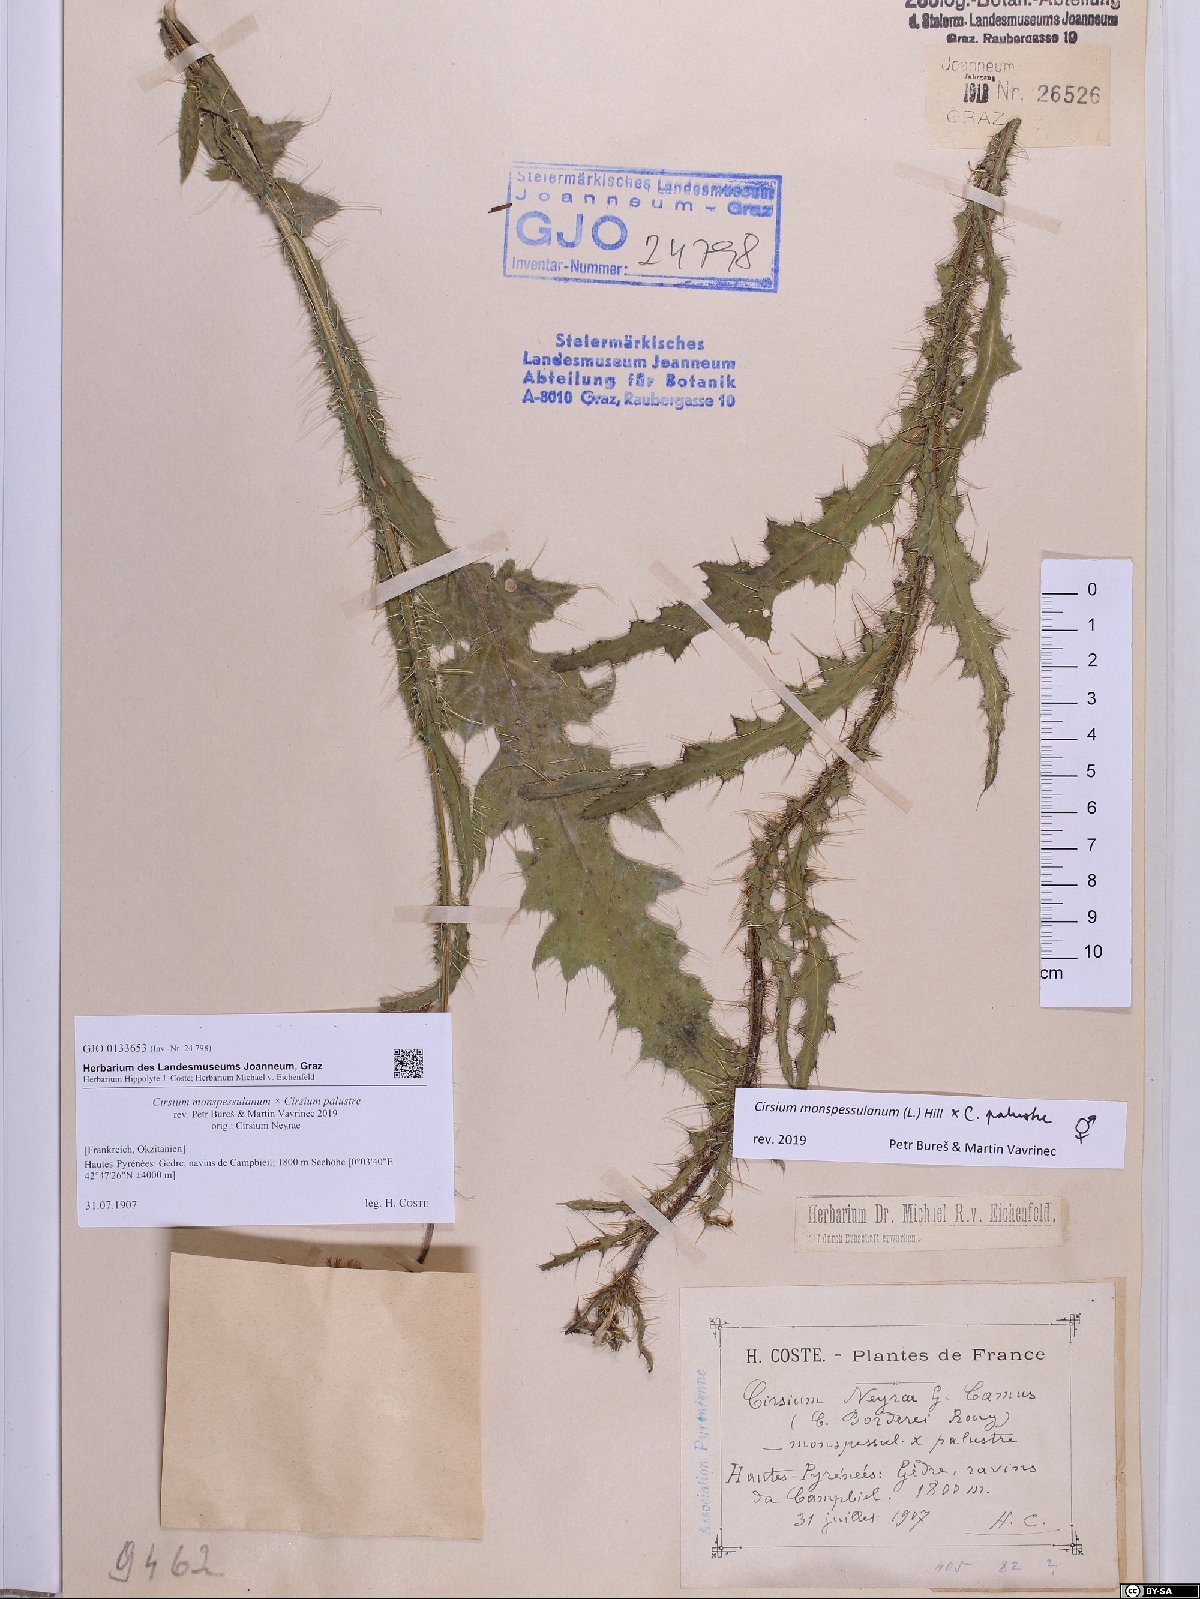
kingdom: Plantae
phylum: Tracheophyta
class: Magnoliopsida
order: Asterales
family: Asteraceae
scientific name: Asteraceae
